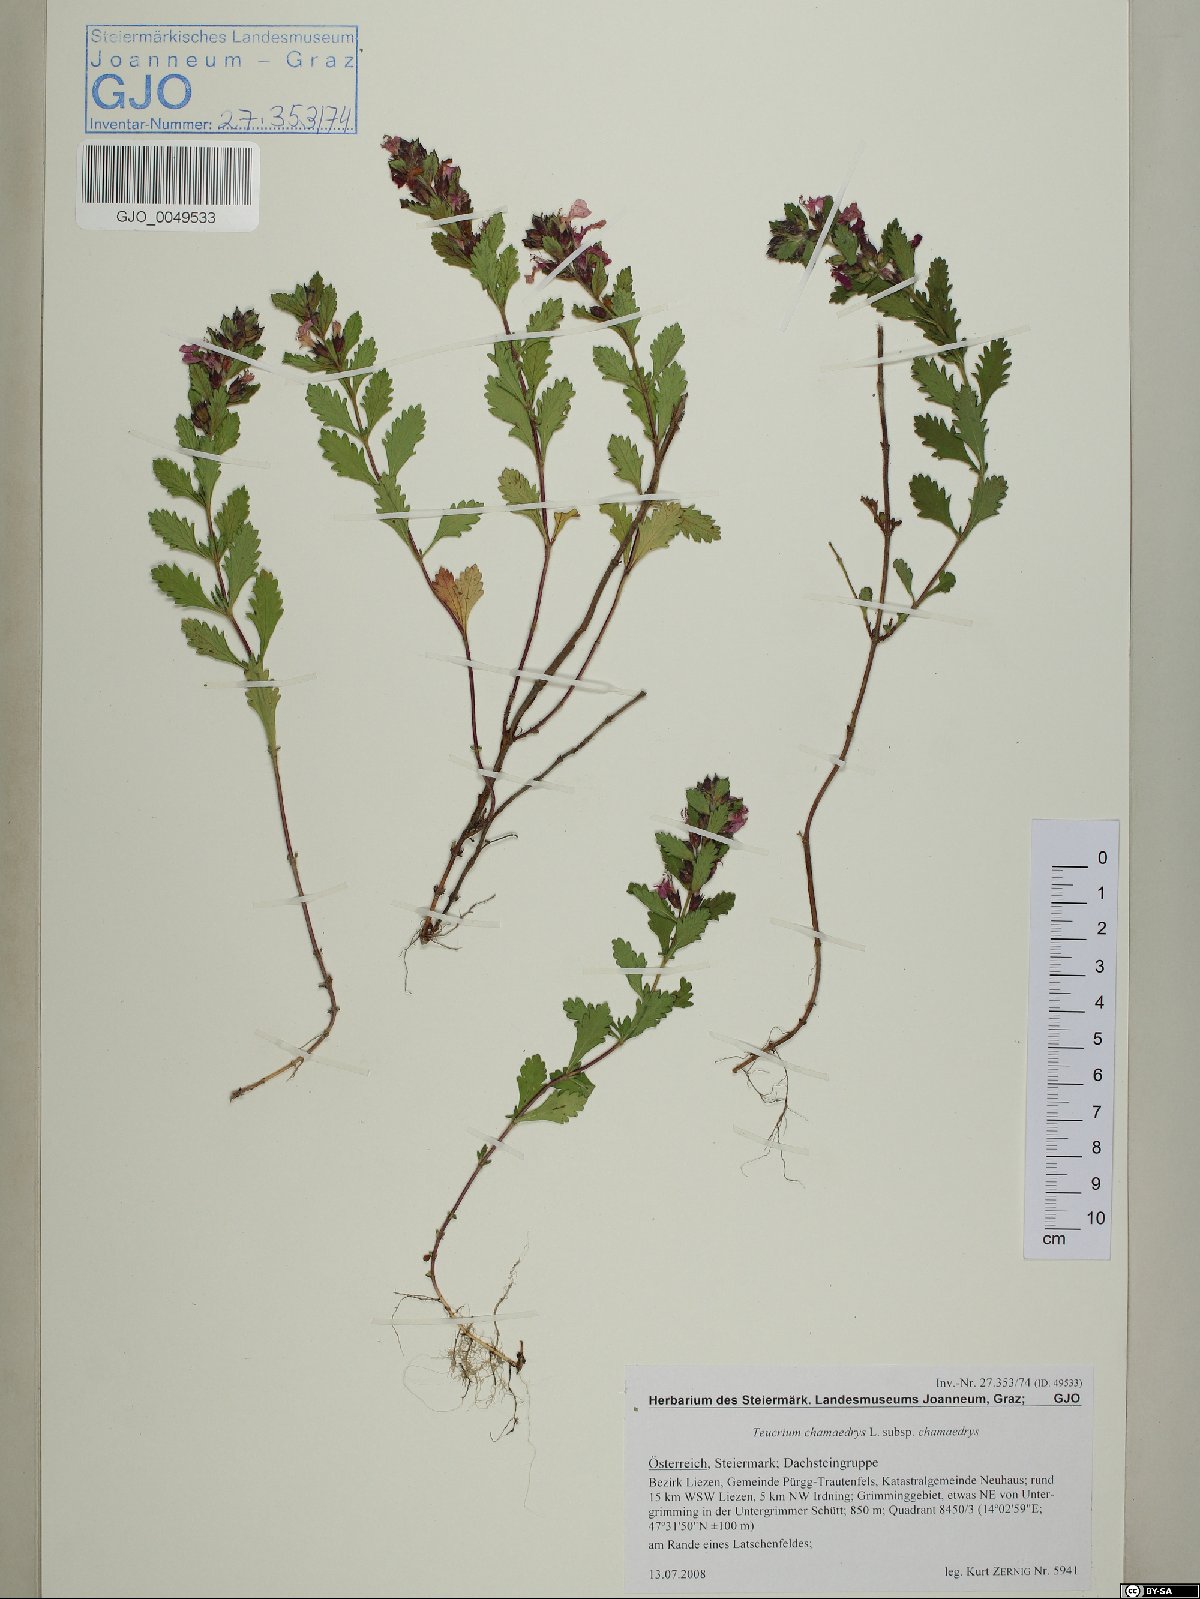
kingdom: Plantae
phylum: Tracheophyta
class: Magnoliopsida
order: Lamiales
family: Lamiaceae
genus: Teucrium
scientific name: Teucrium chamaedrys
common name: Wall germander
